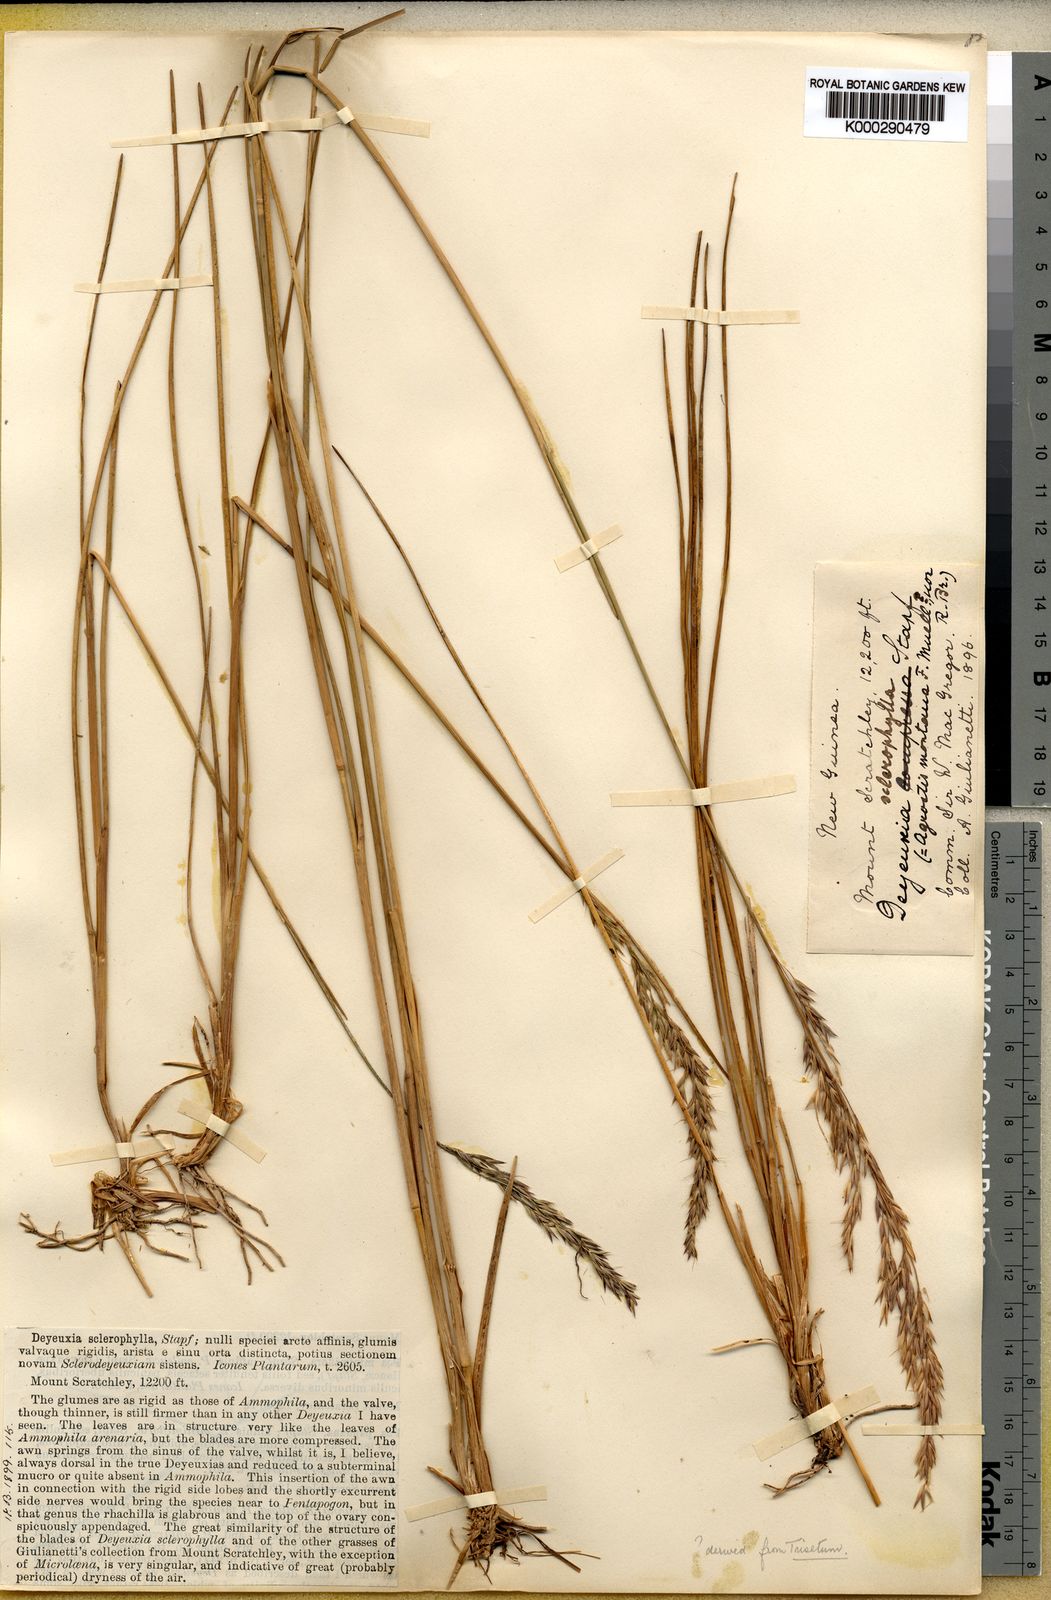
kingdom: Plantae
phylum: Tracheophyta
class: Liliopsida
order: Poales
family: Poaceae
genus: Calamagrostis
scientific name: Calamagrostis sclerophylla
